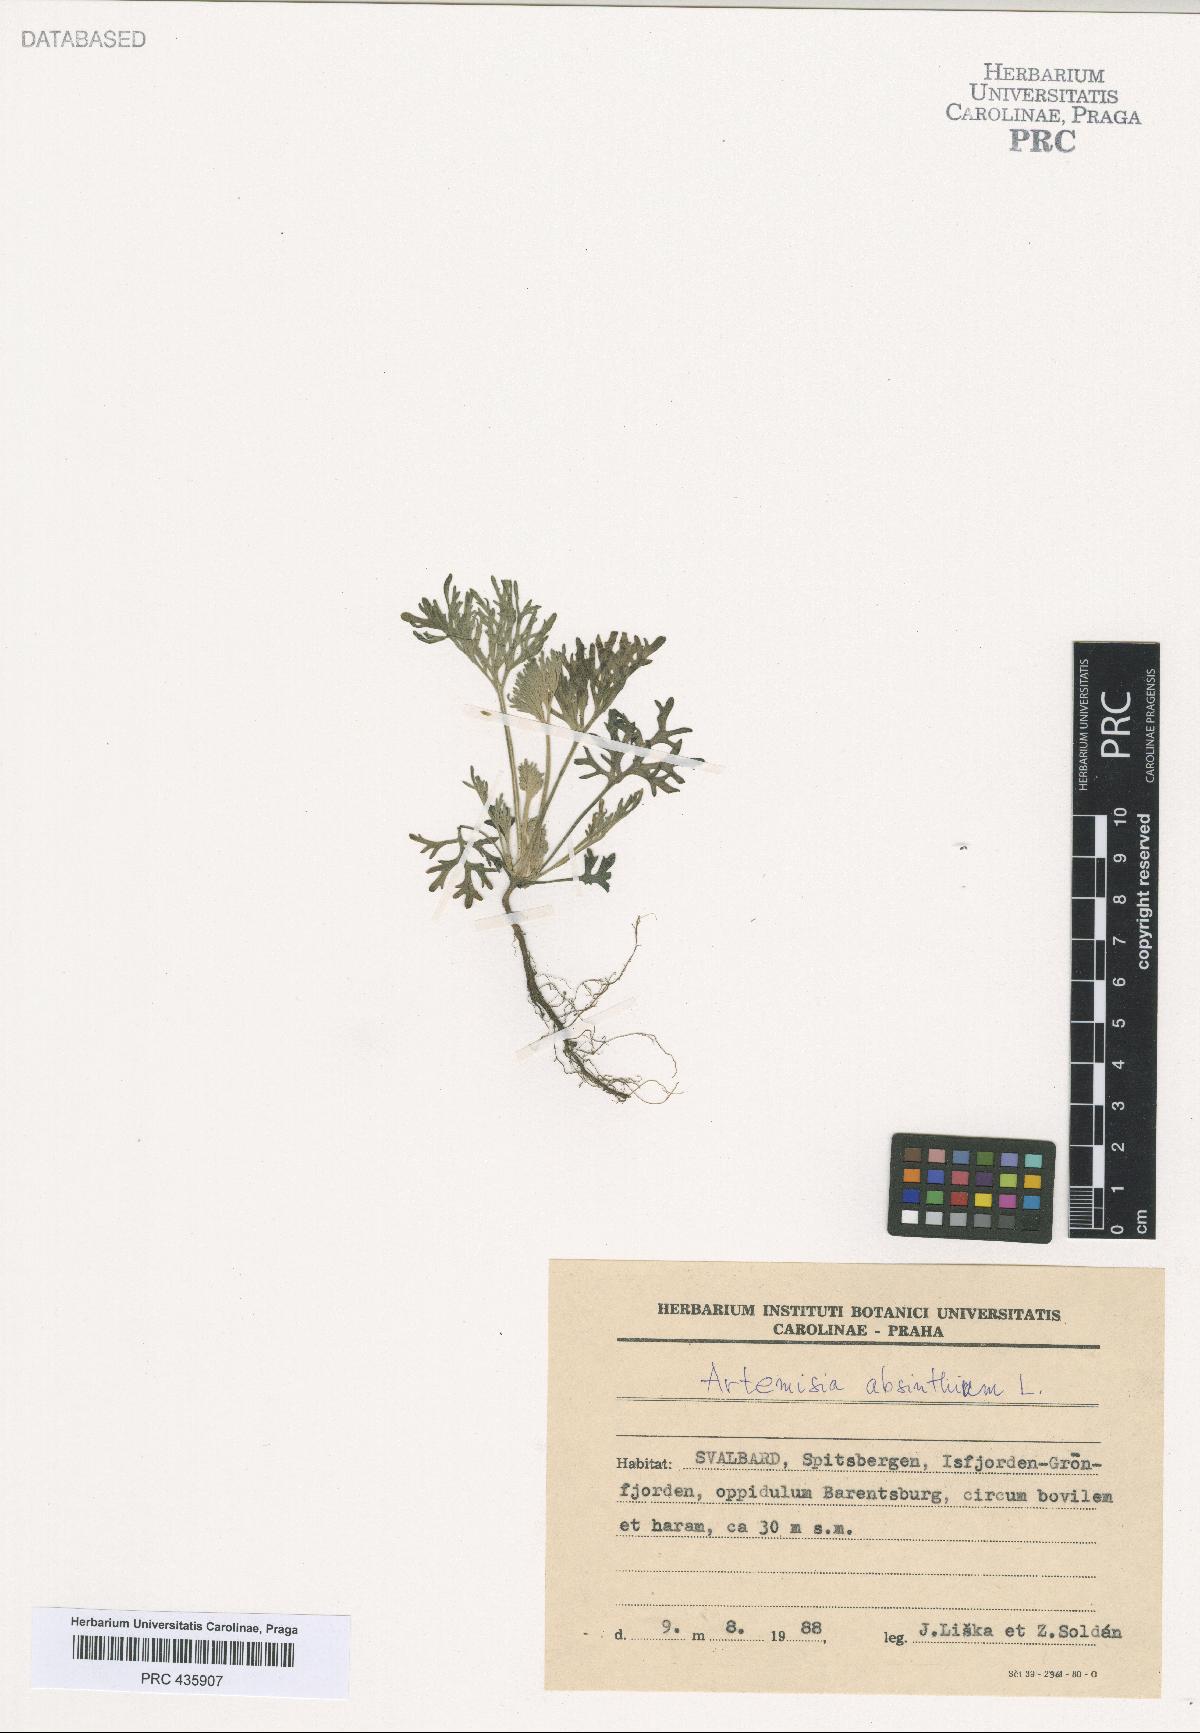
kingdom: Plantae
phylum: Tracheophyta
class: Magnoliopsida
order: Asterales
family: Asteraceae
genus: Artemisia
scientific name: Artemisia absinthium
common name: Wormwood
